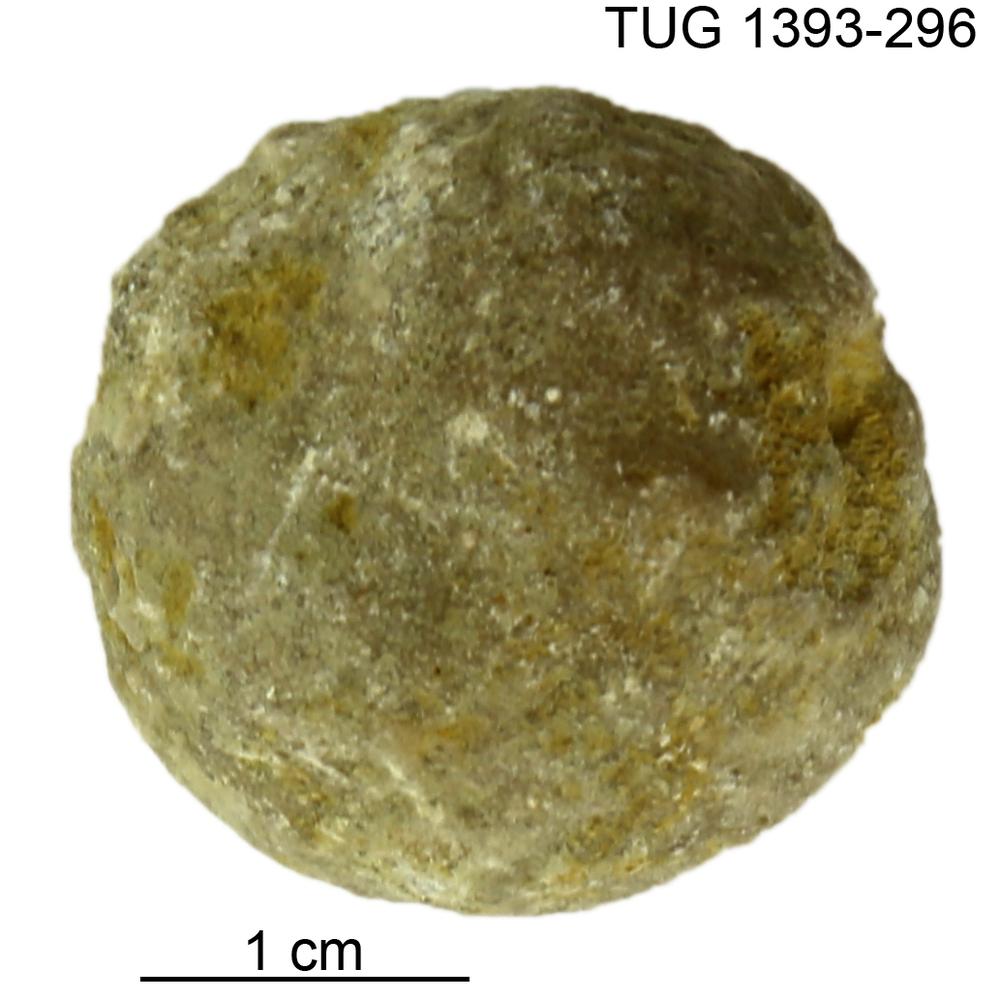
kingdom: Animalia
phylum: Bryozoa
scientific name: Bryozoa
